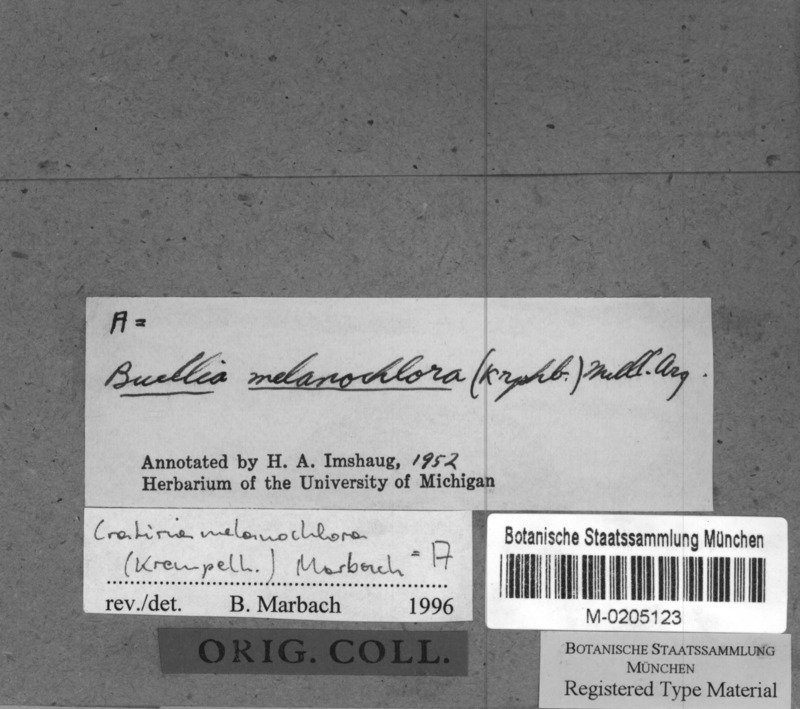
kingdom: Fungi
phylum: Ascomycota
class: Lecanoromycetes
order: Caliciales
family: Caliciaceae
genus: Cratiria
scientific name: Cratiria melanochlora
